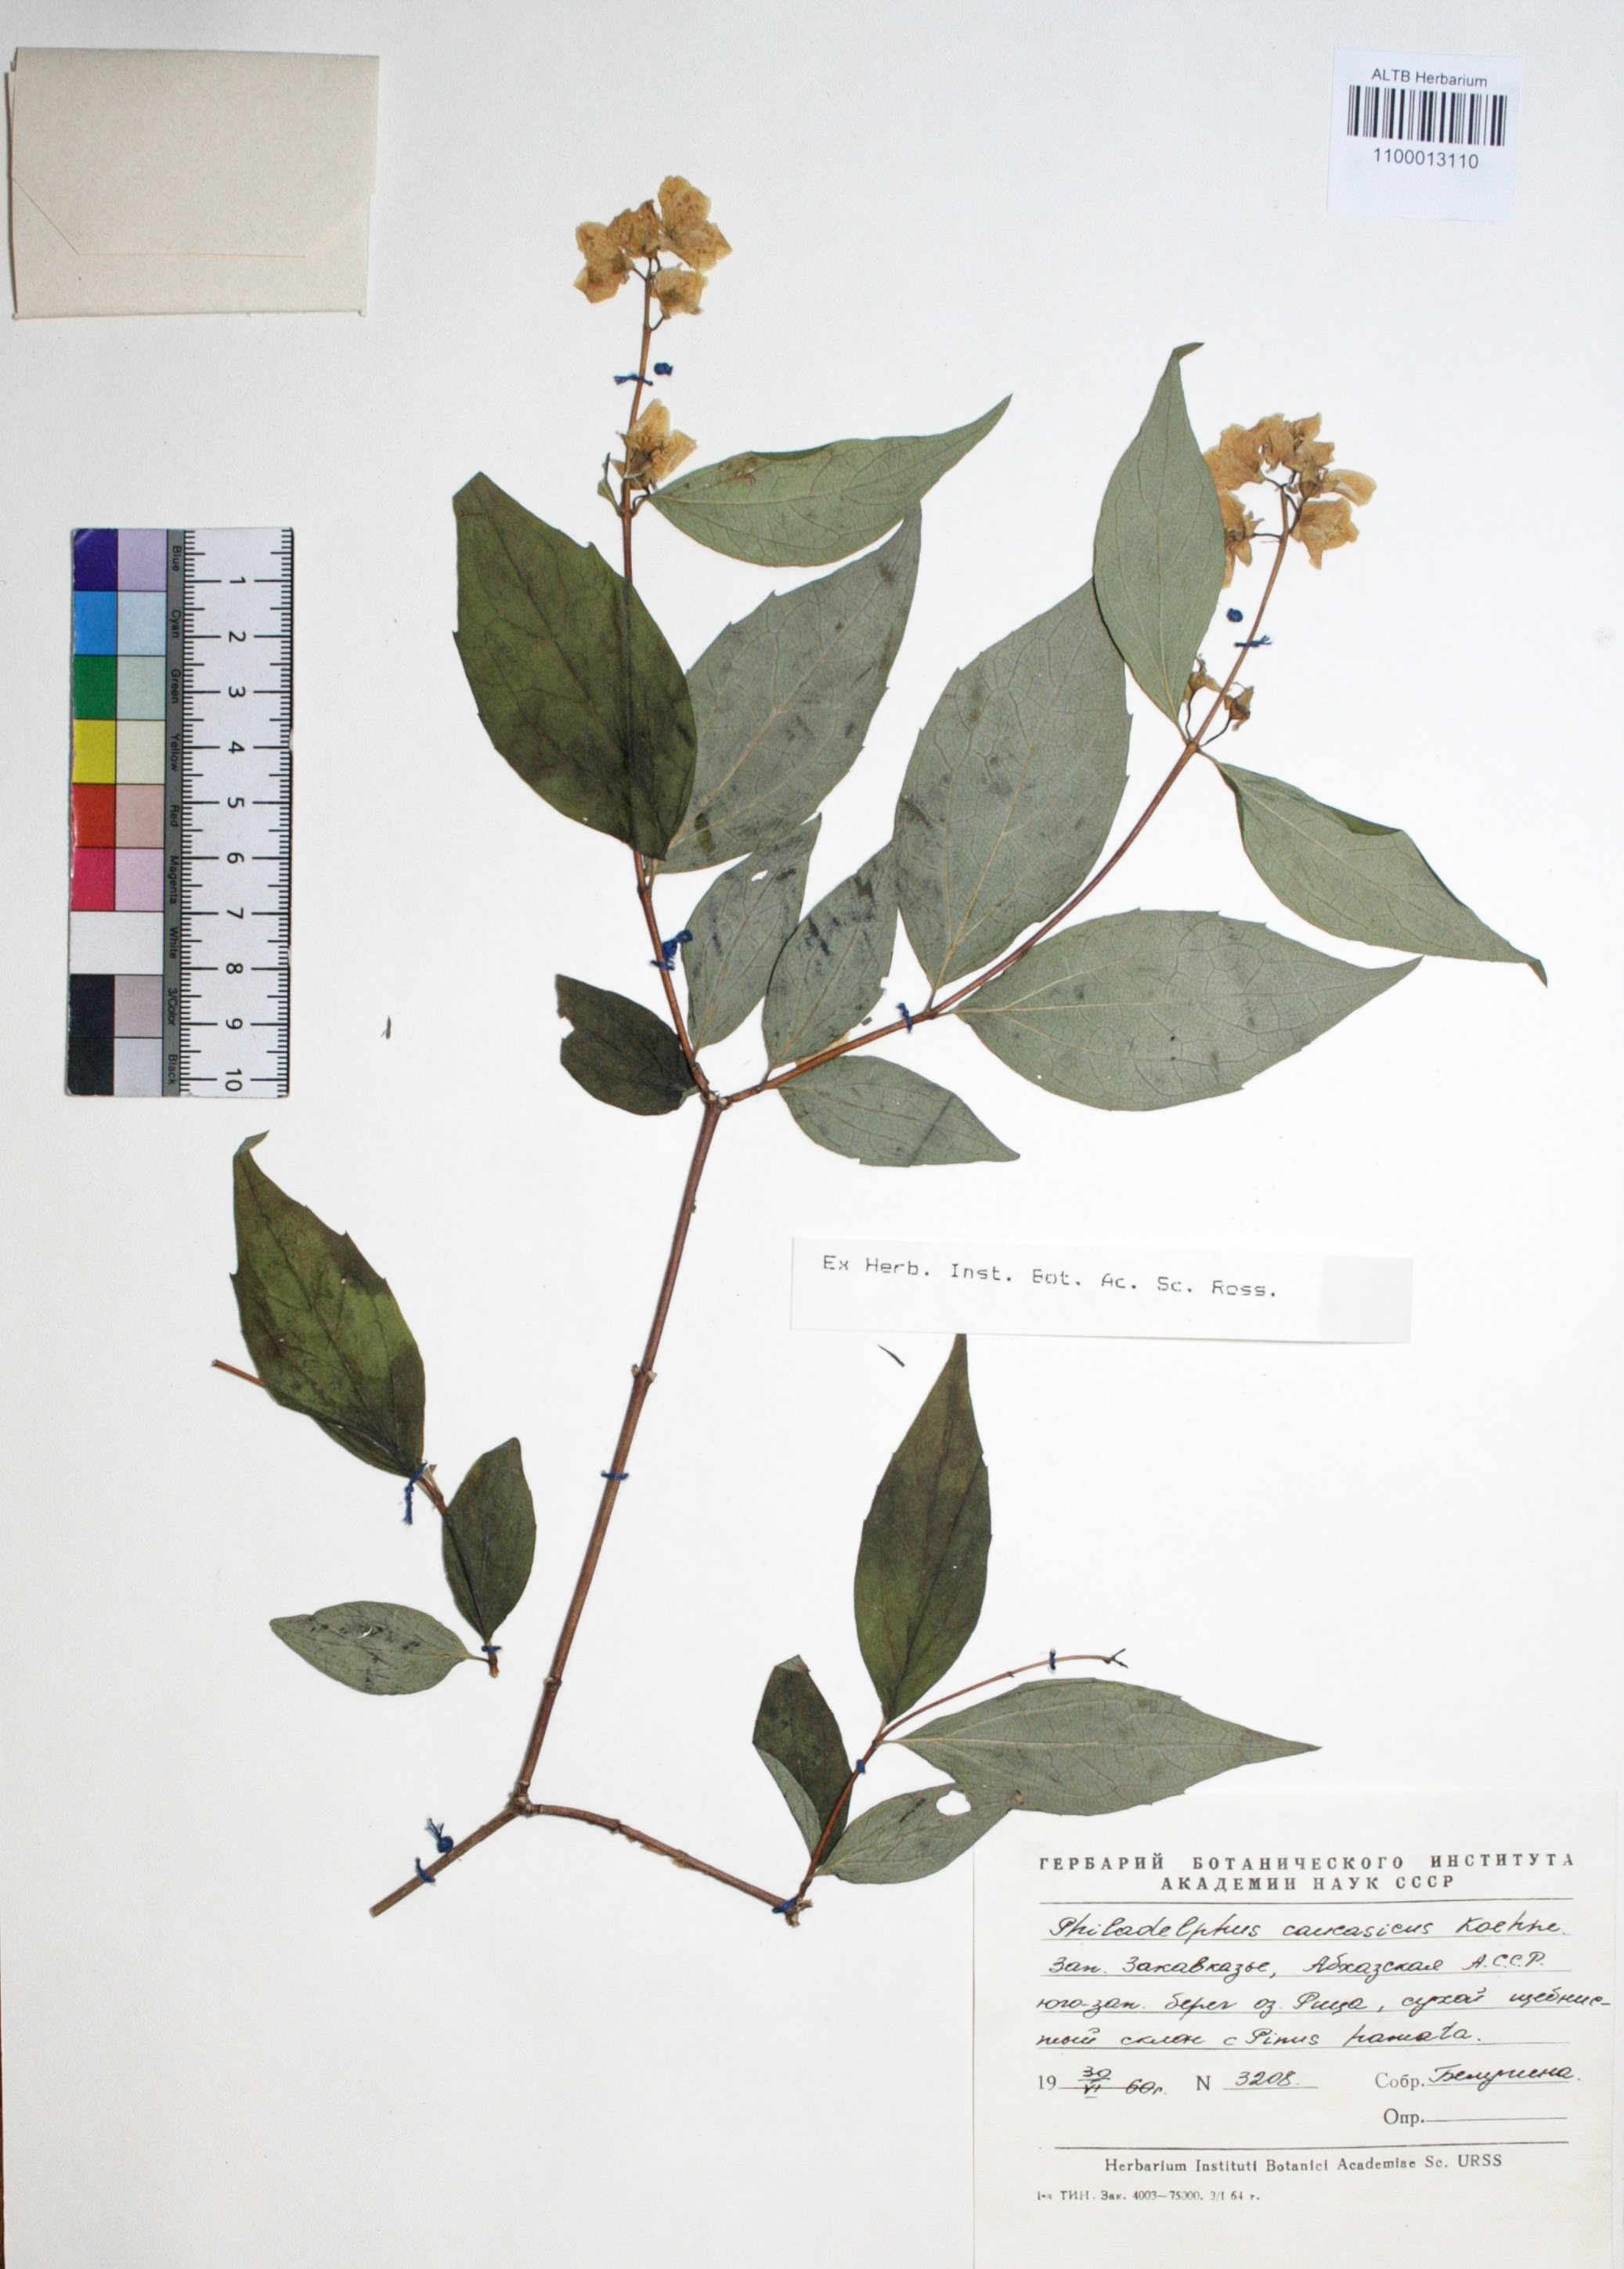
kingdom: Plantae
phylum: Tracheophyta
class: Magnoliopsida
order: Cornales
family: Hydrangeaceae
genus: Philadelphus
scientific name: Philadelphus coronarius
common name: Mock orange
